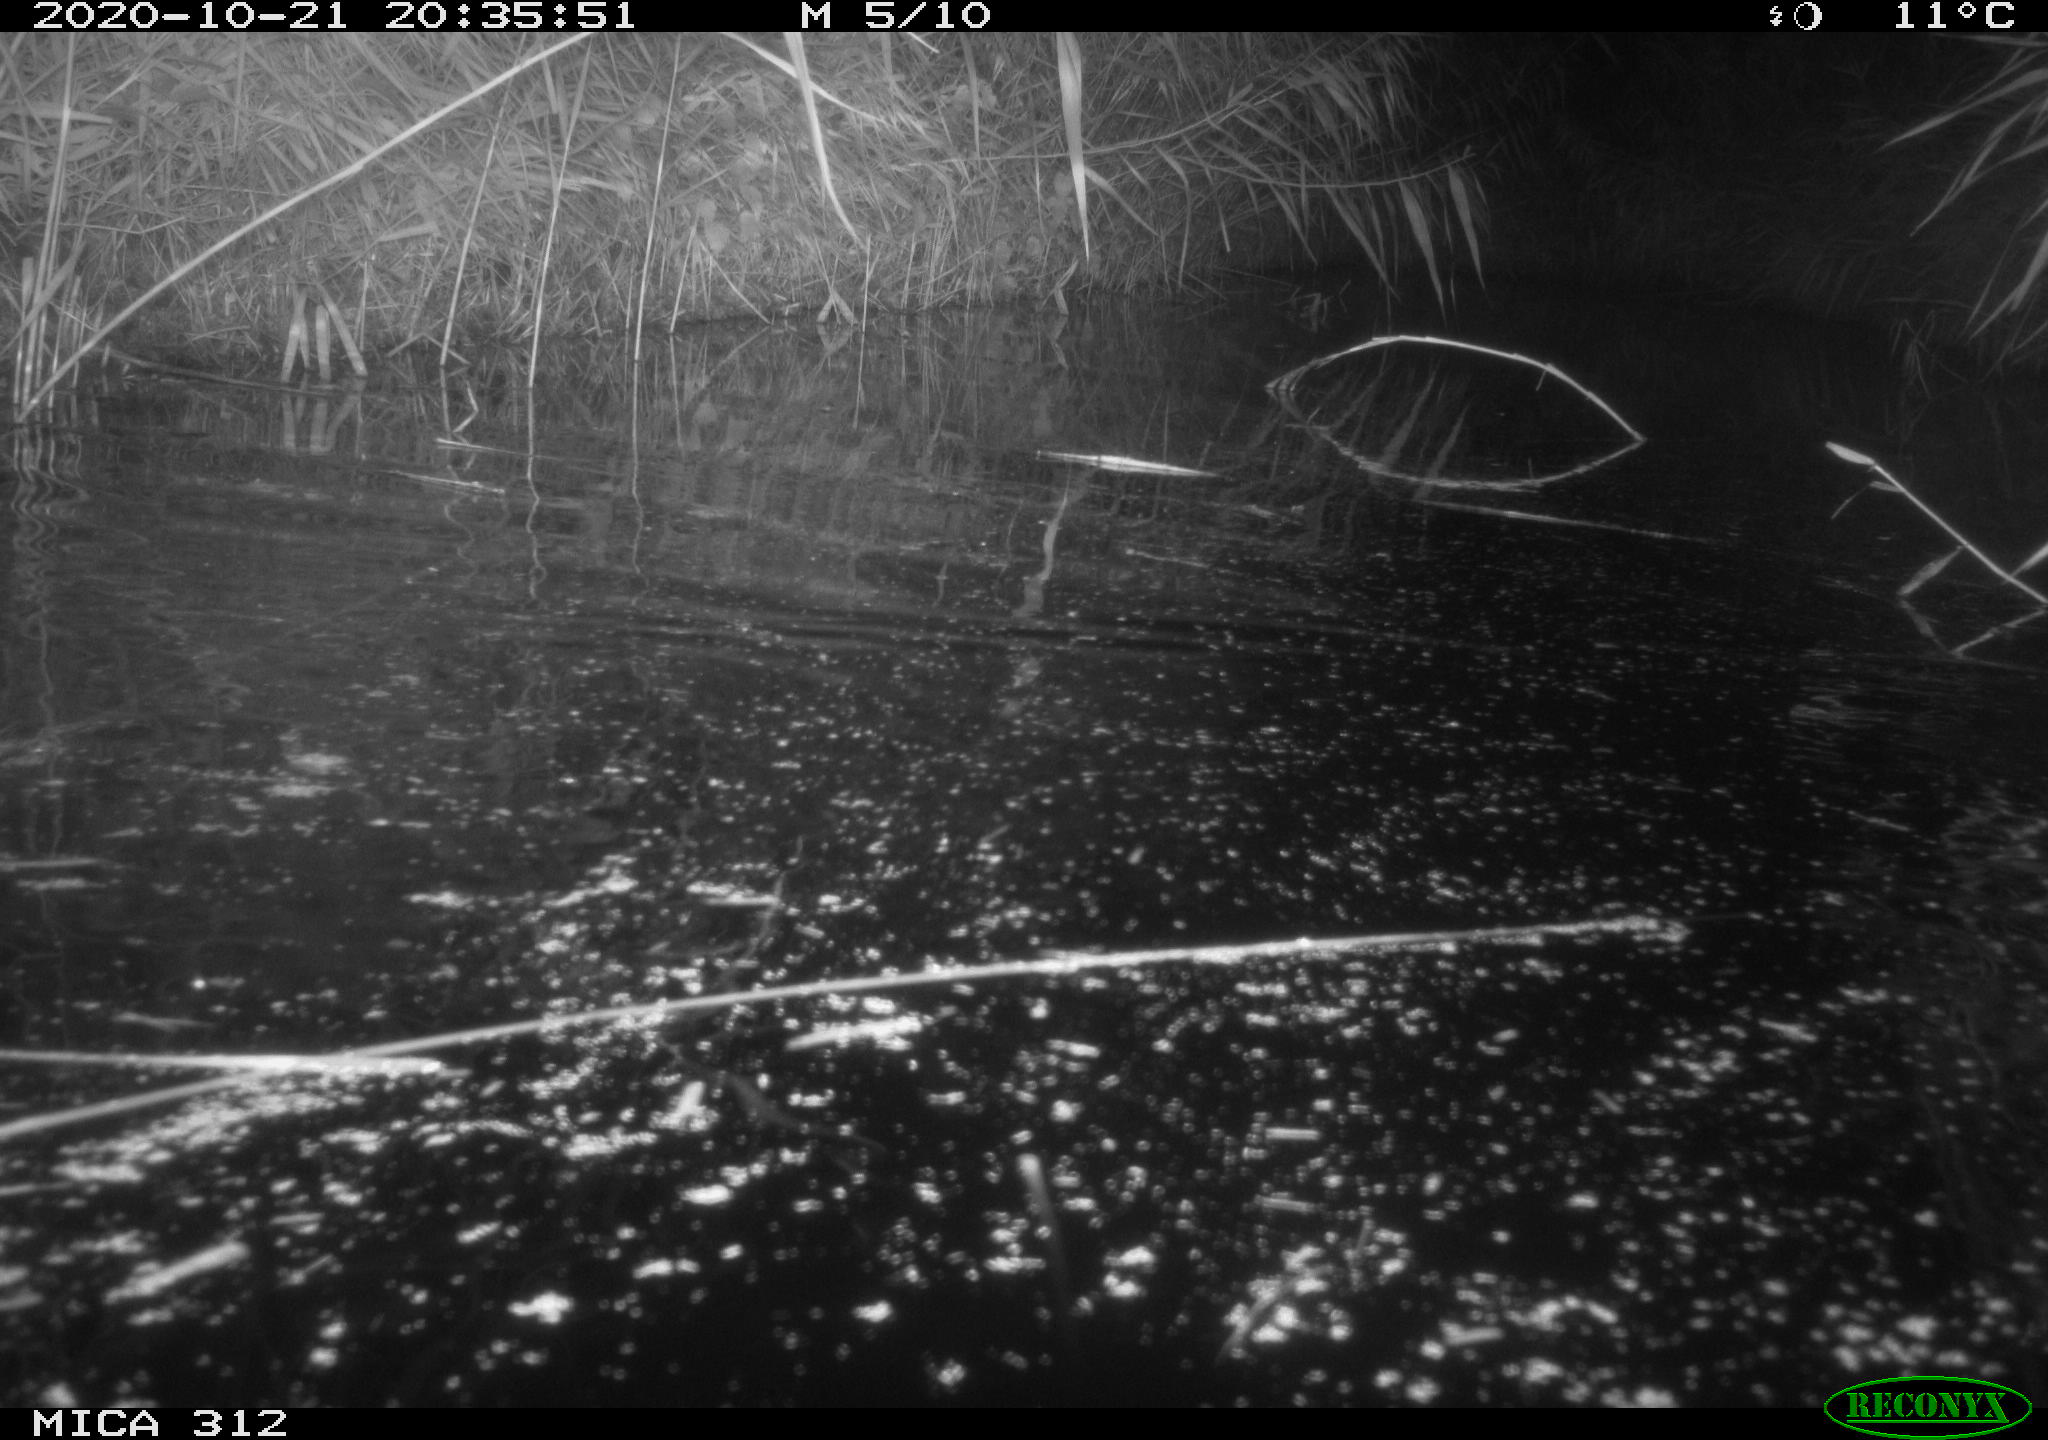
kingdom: Animalia
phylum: Chordata
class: Mammalia
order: Rodentia
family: Muridae
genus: Rattus
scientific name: Rattus norvegicus
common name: Brown rat
